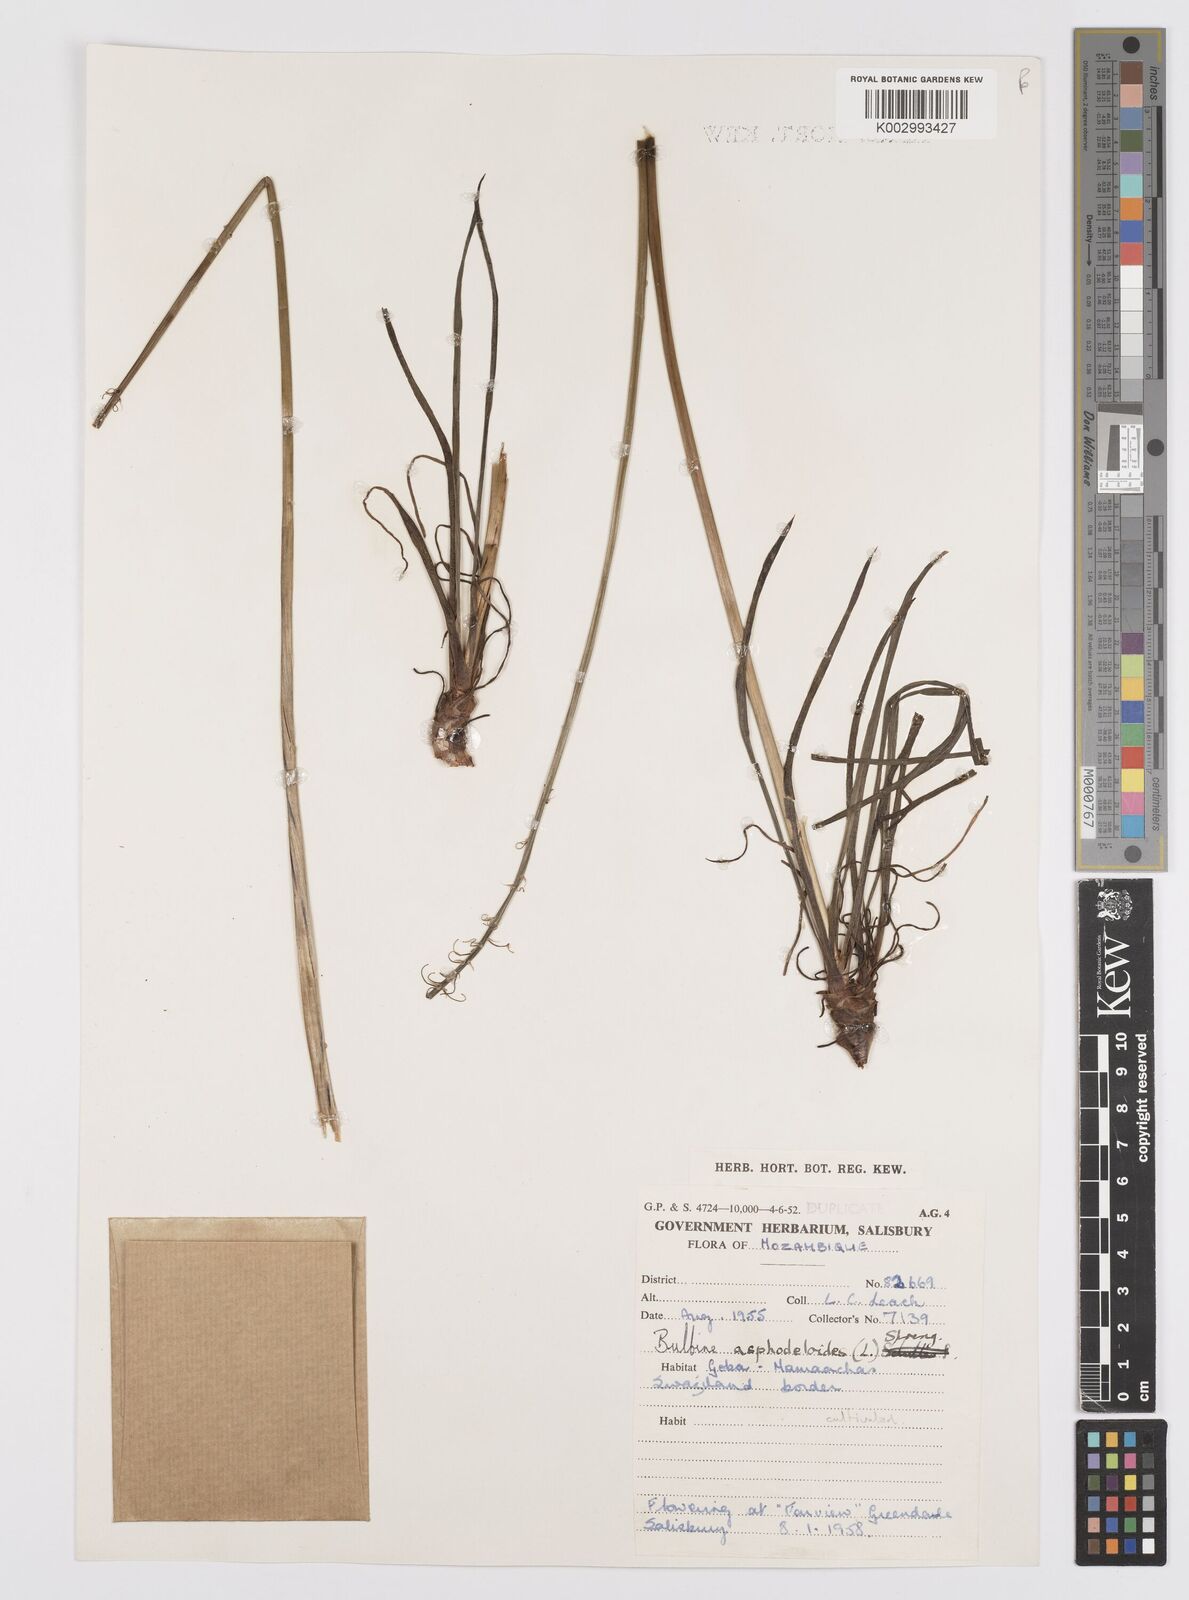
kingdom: Plantae
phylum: Tracheophyta
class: Liliopsida
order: Asparagales
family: Asphodelaceae
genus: Bulbine
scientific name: Bulbine asphodeloides
